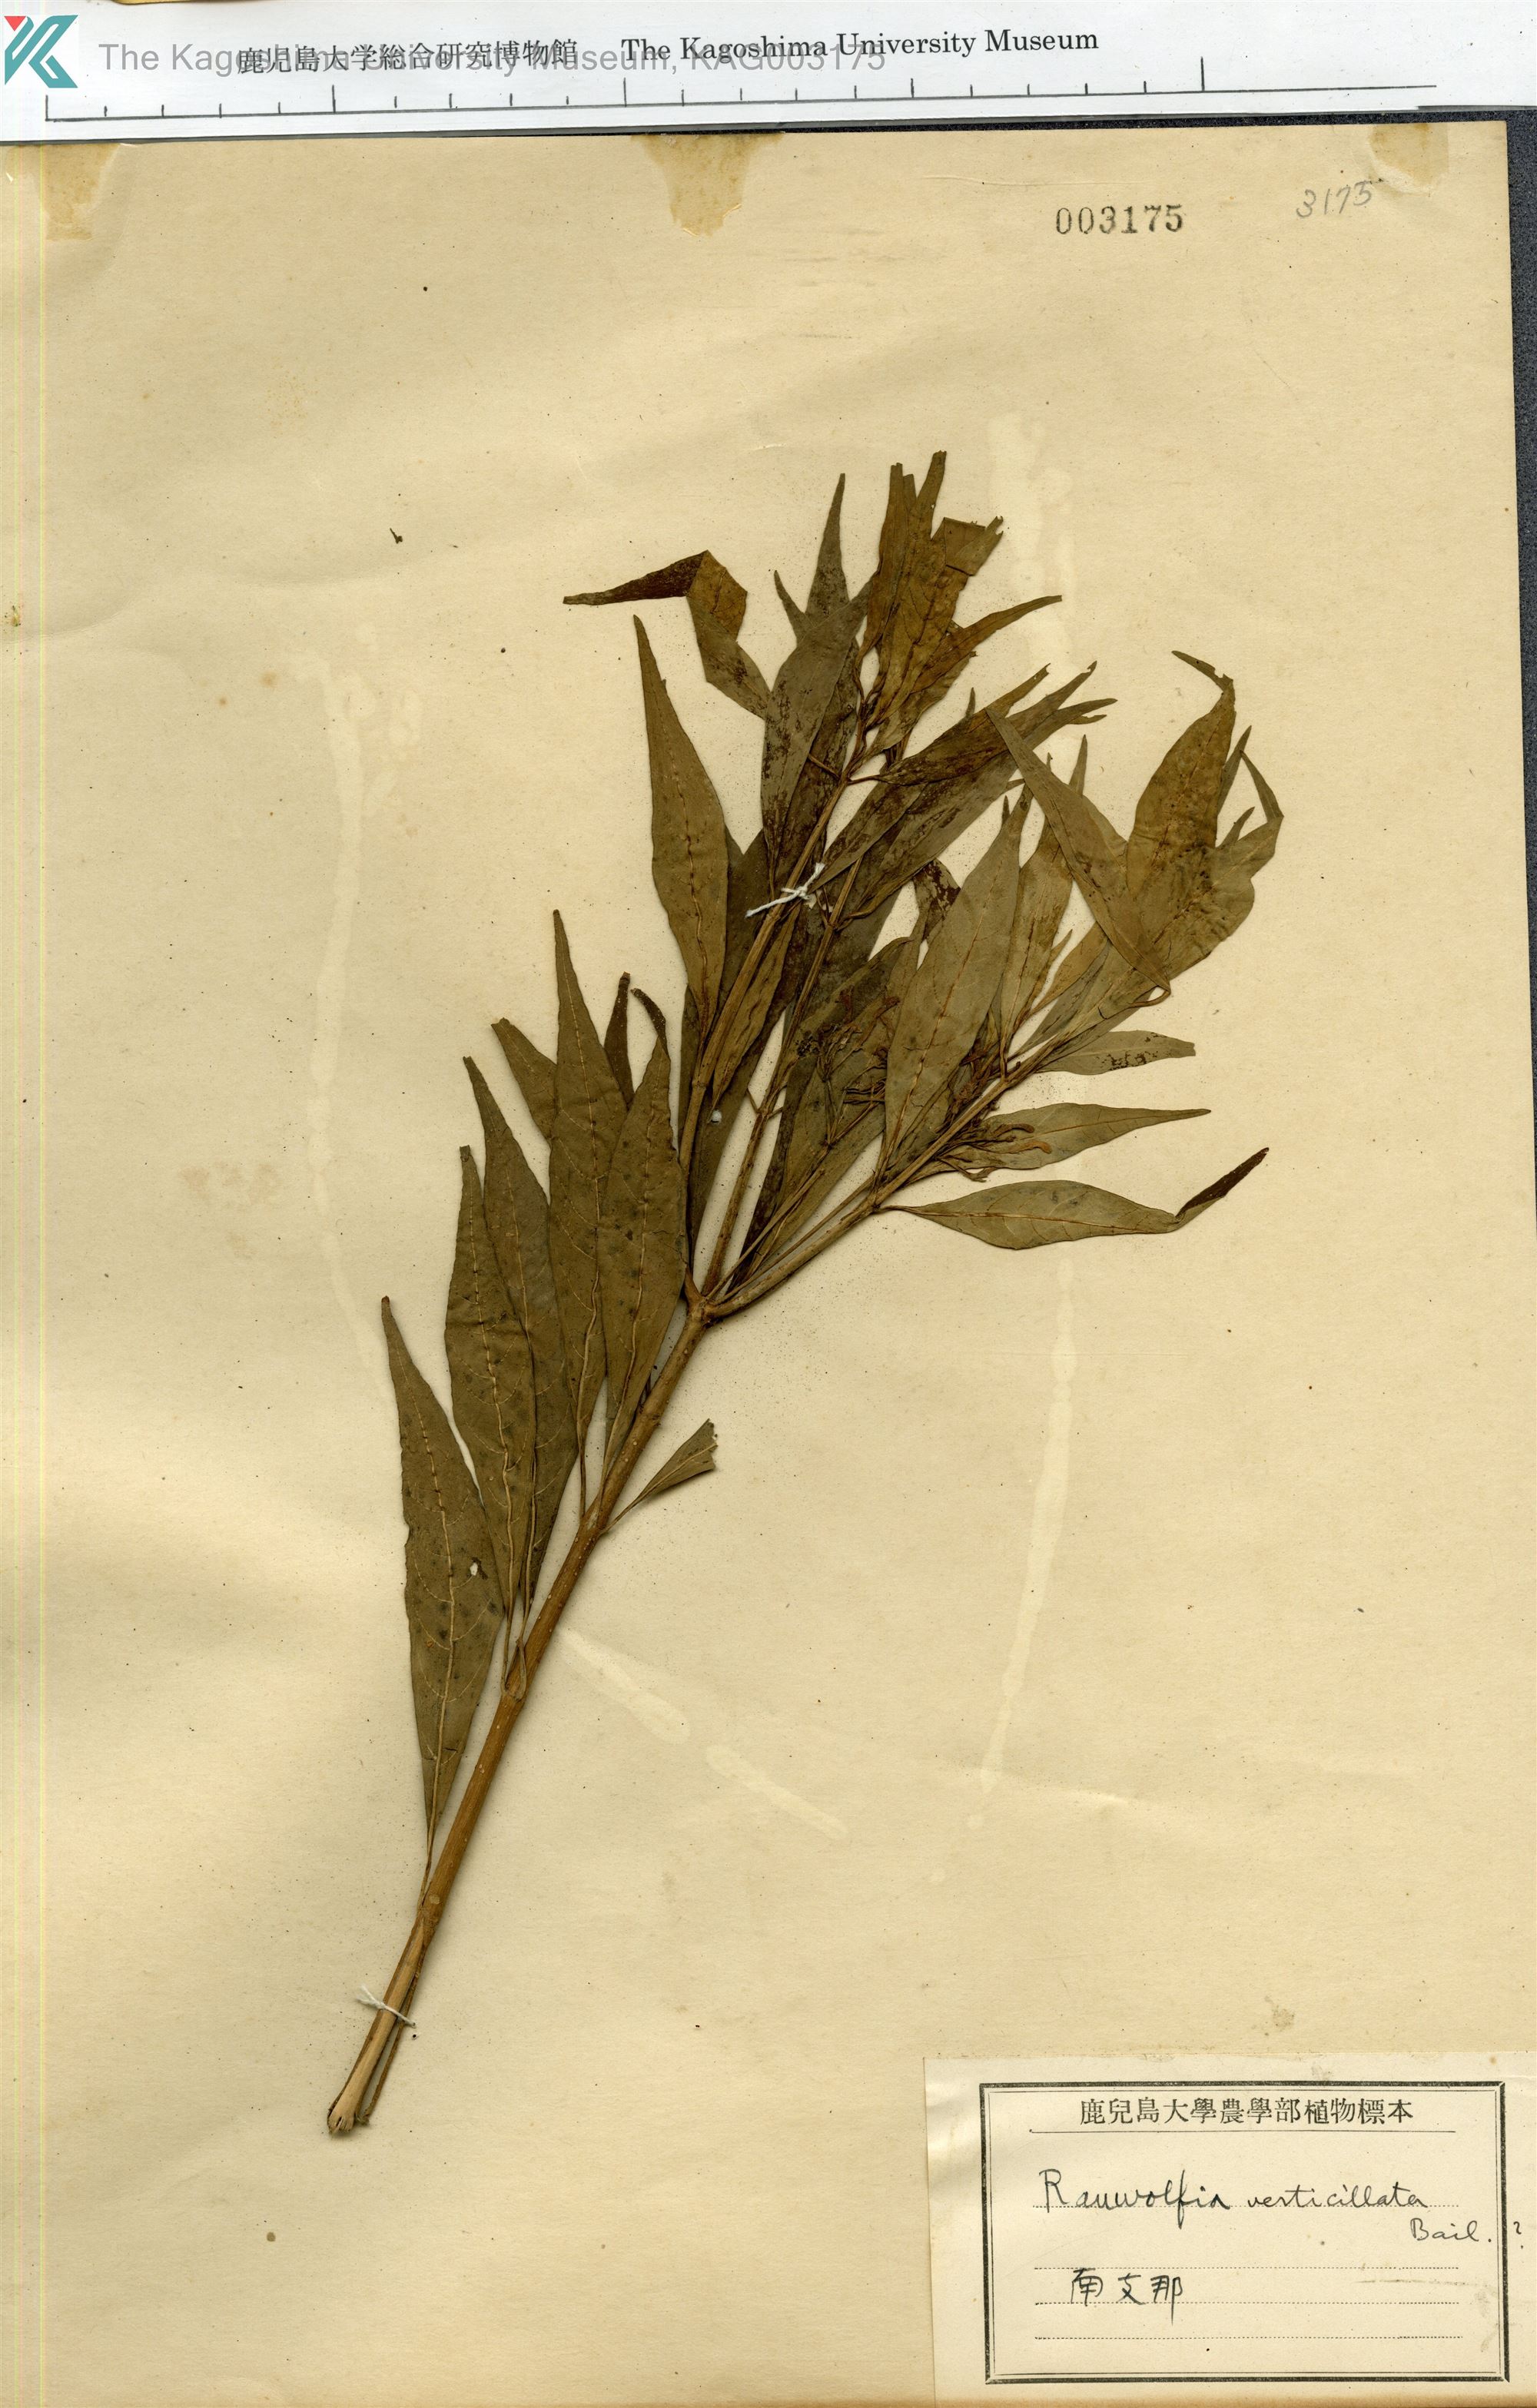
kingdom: Plantae
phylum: Tracheophyta
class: Magnoliopsida
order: Gentianales
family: Apocynaceae
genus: Rauvolfia
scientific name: Rauvolfia verticillata
